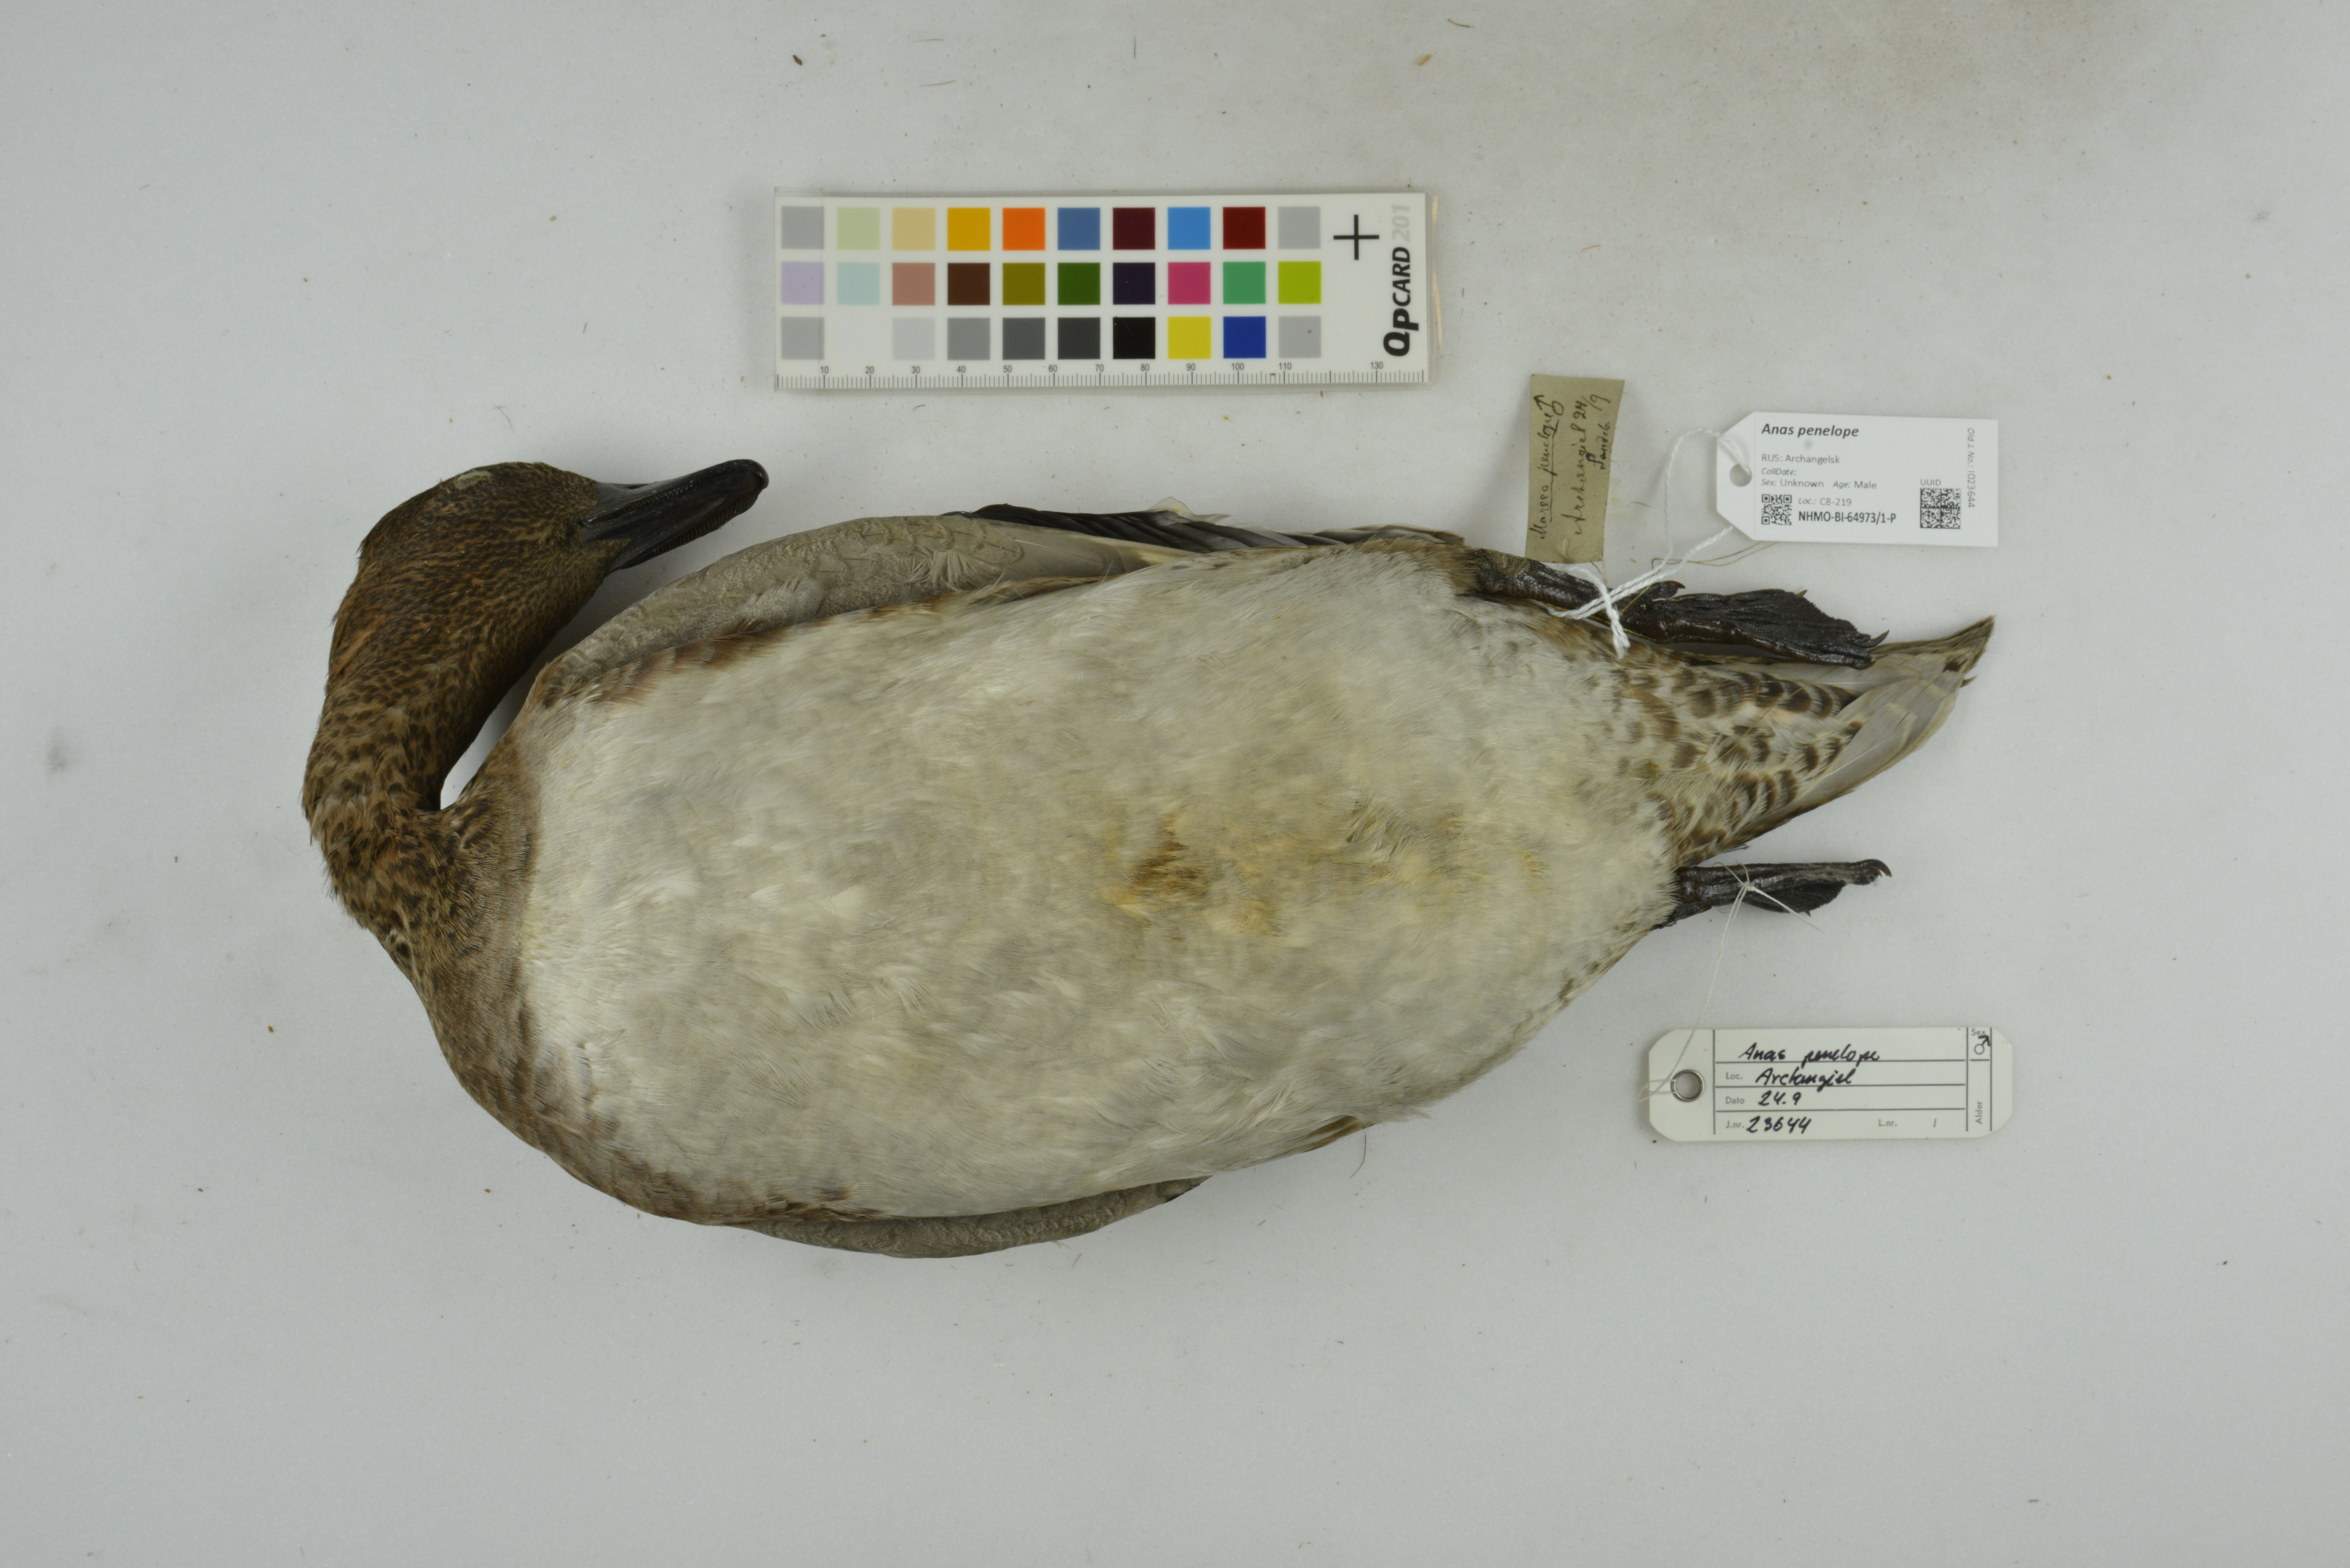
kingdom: Animalia
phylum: Chordata
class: Aves
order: Anseriformes
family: Anatidae
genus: Mareca
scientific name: Mareca penelope
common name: Eurasian wigeon
